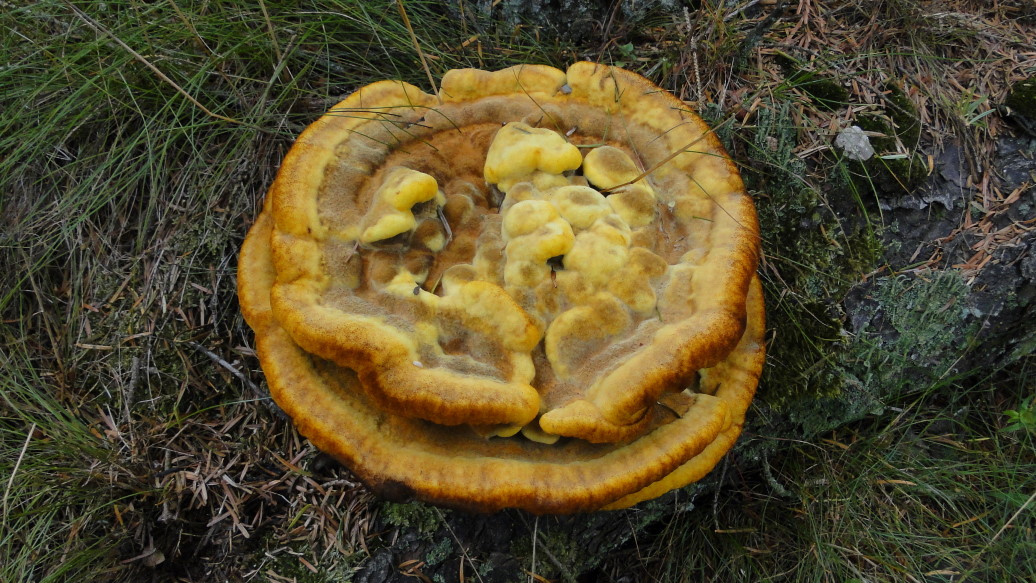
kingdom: Fungi
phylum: Basidiomycota
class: Agaricomycetes
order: Polyporales
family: Laetiporaceae
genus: Phaeolus
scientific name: Phaeolus schweinitzii
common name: brunporesvamp
